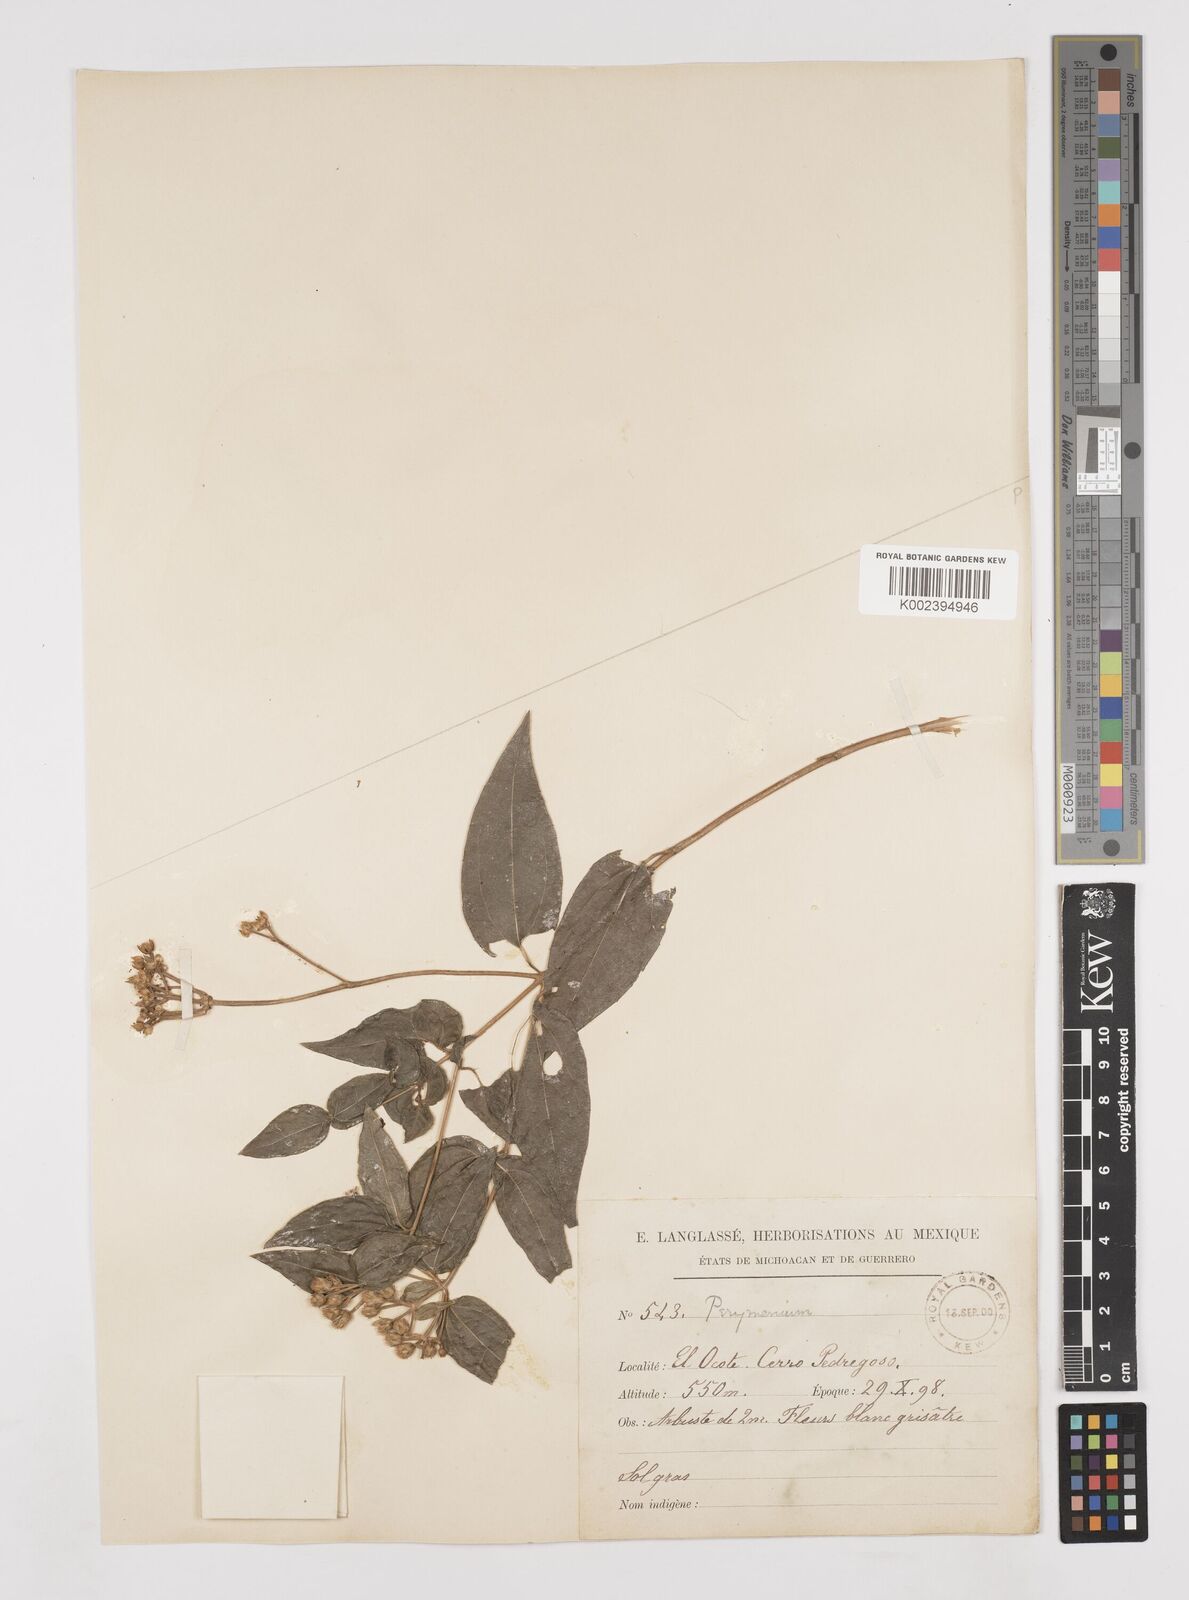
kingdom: Plantae
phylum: Tracheophyta
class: Magnoliopsida
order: Asterales
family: Asteraceae
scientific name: Asteraceae
